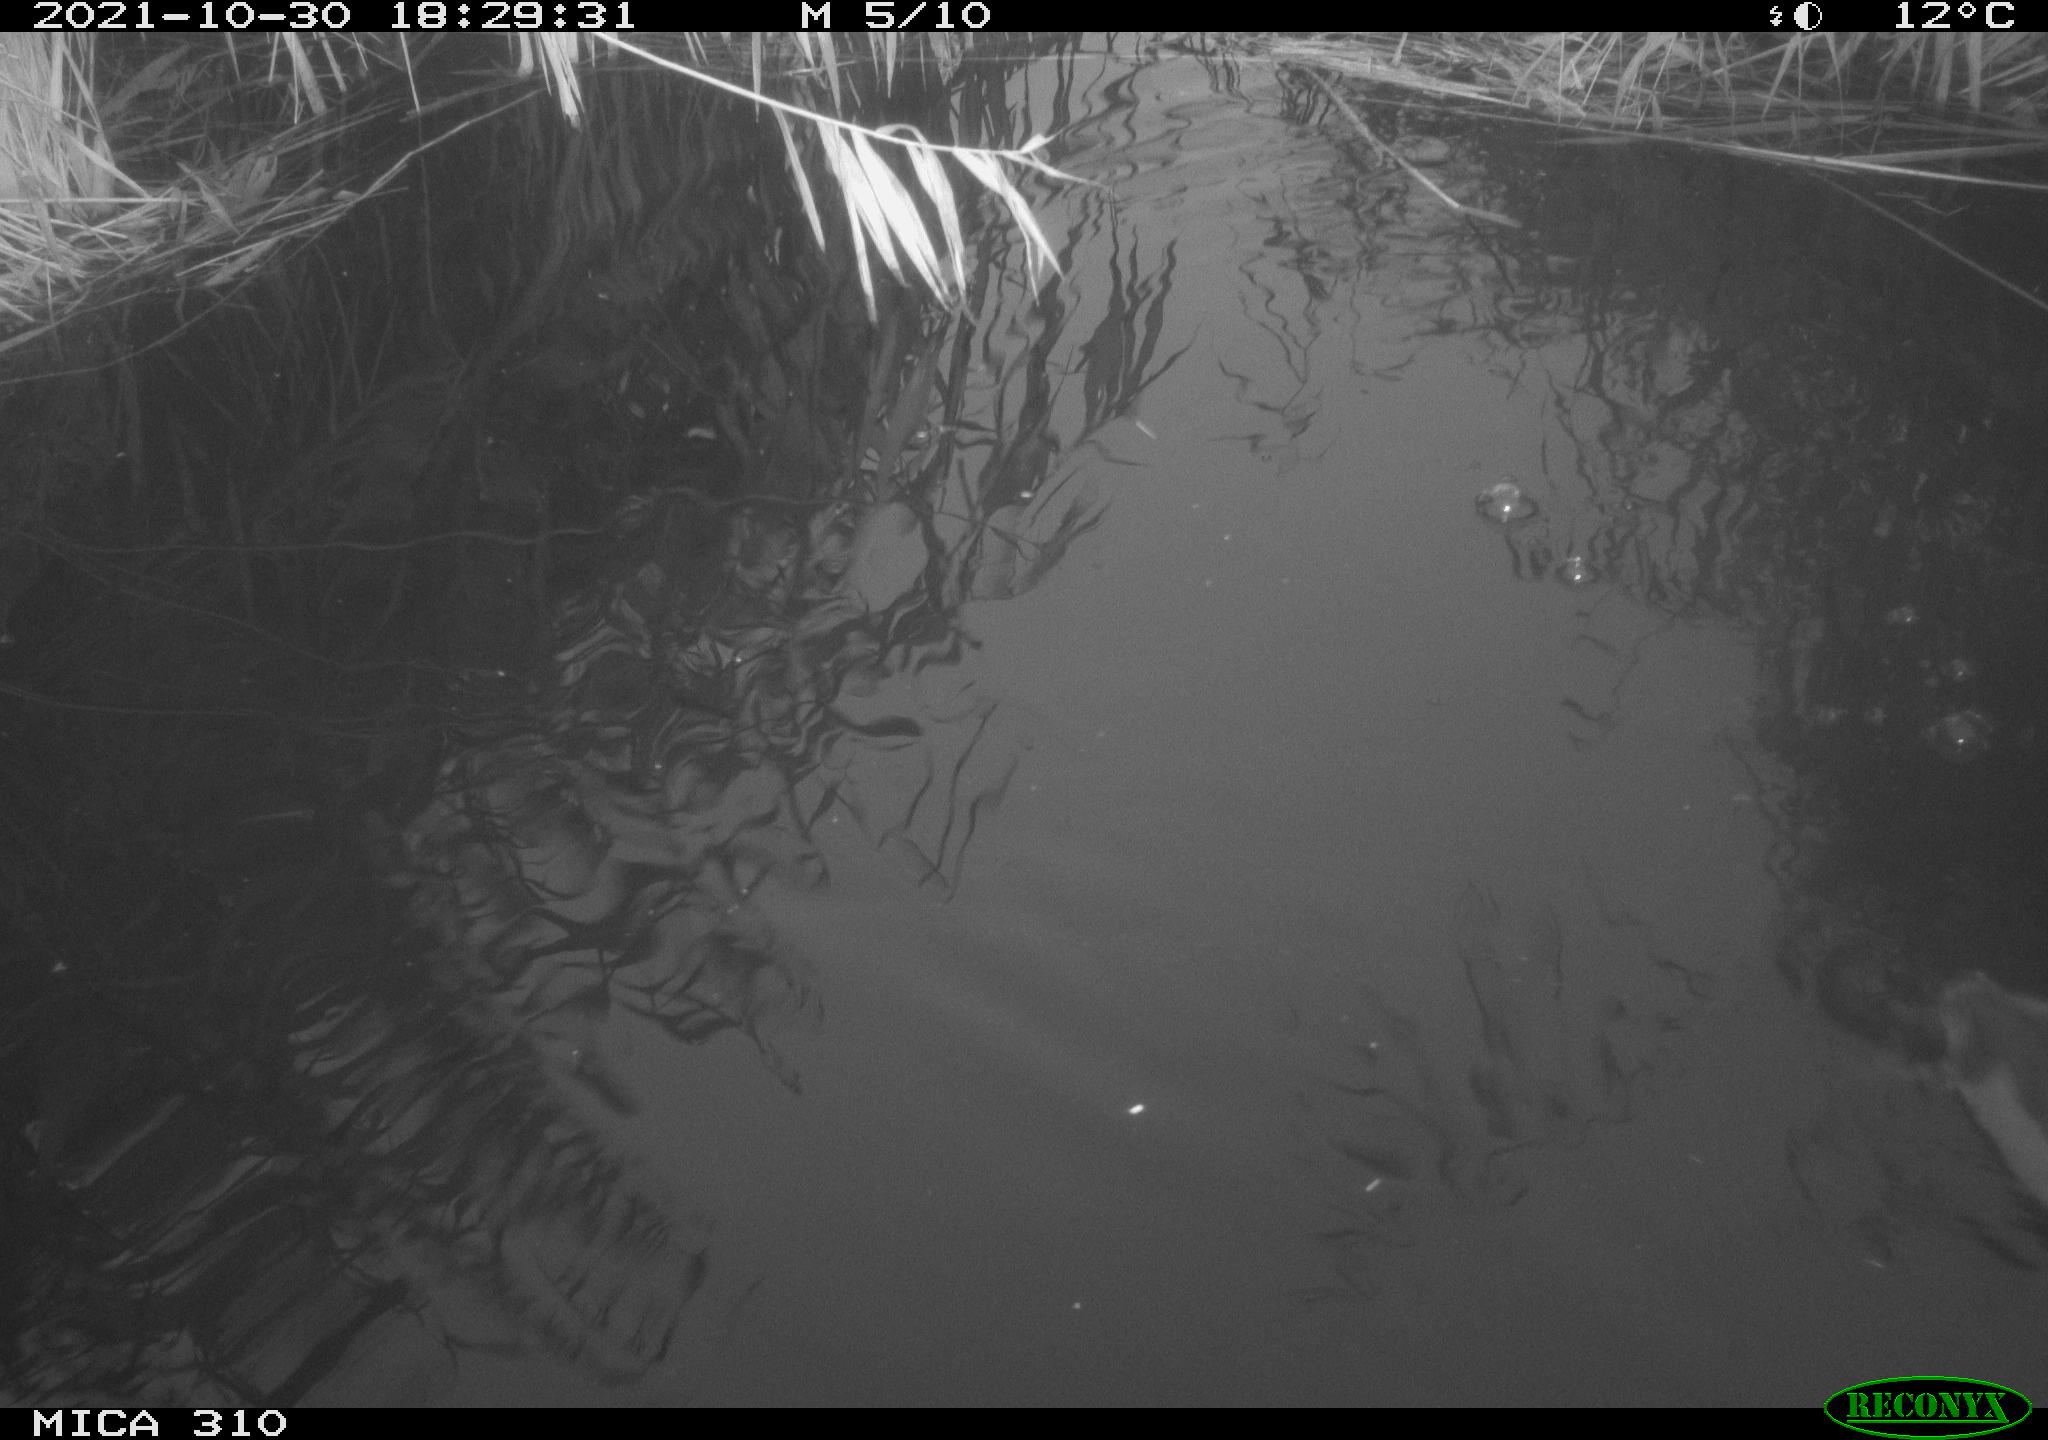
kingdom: Animalia
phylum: Chordata
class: Aves
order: Gruiformes
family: Rallidae
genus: Fulica
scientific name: Fulica atra
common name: Eurasian coot
